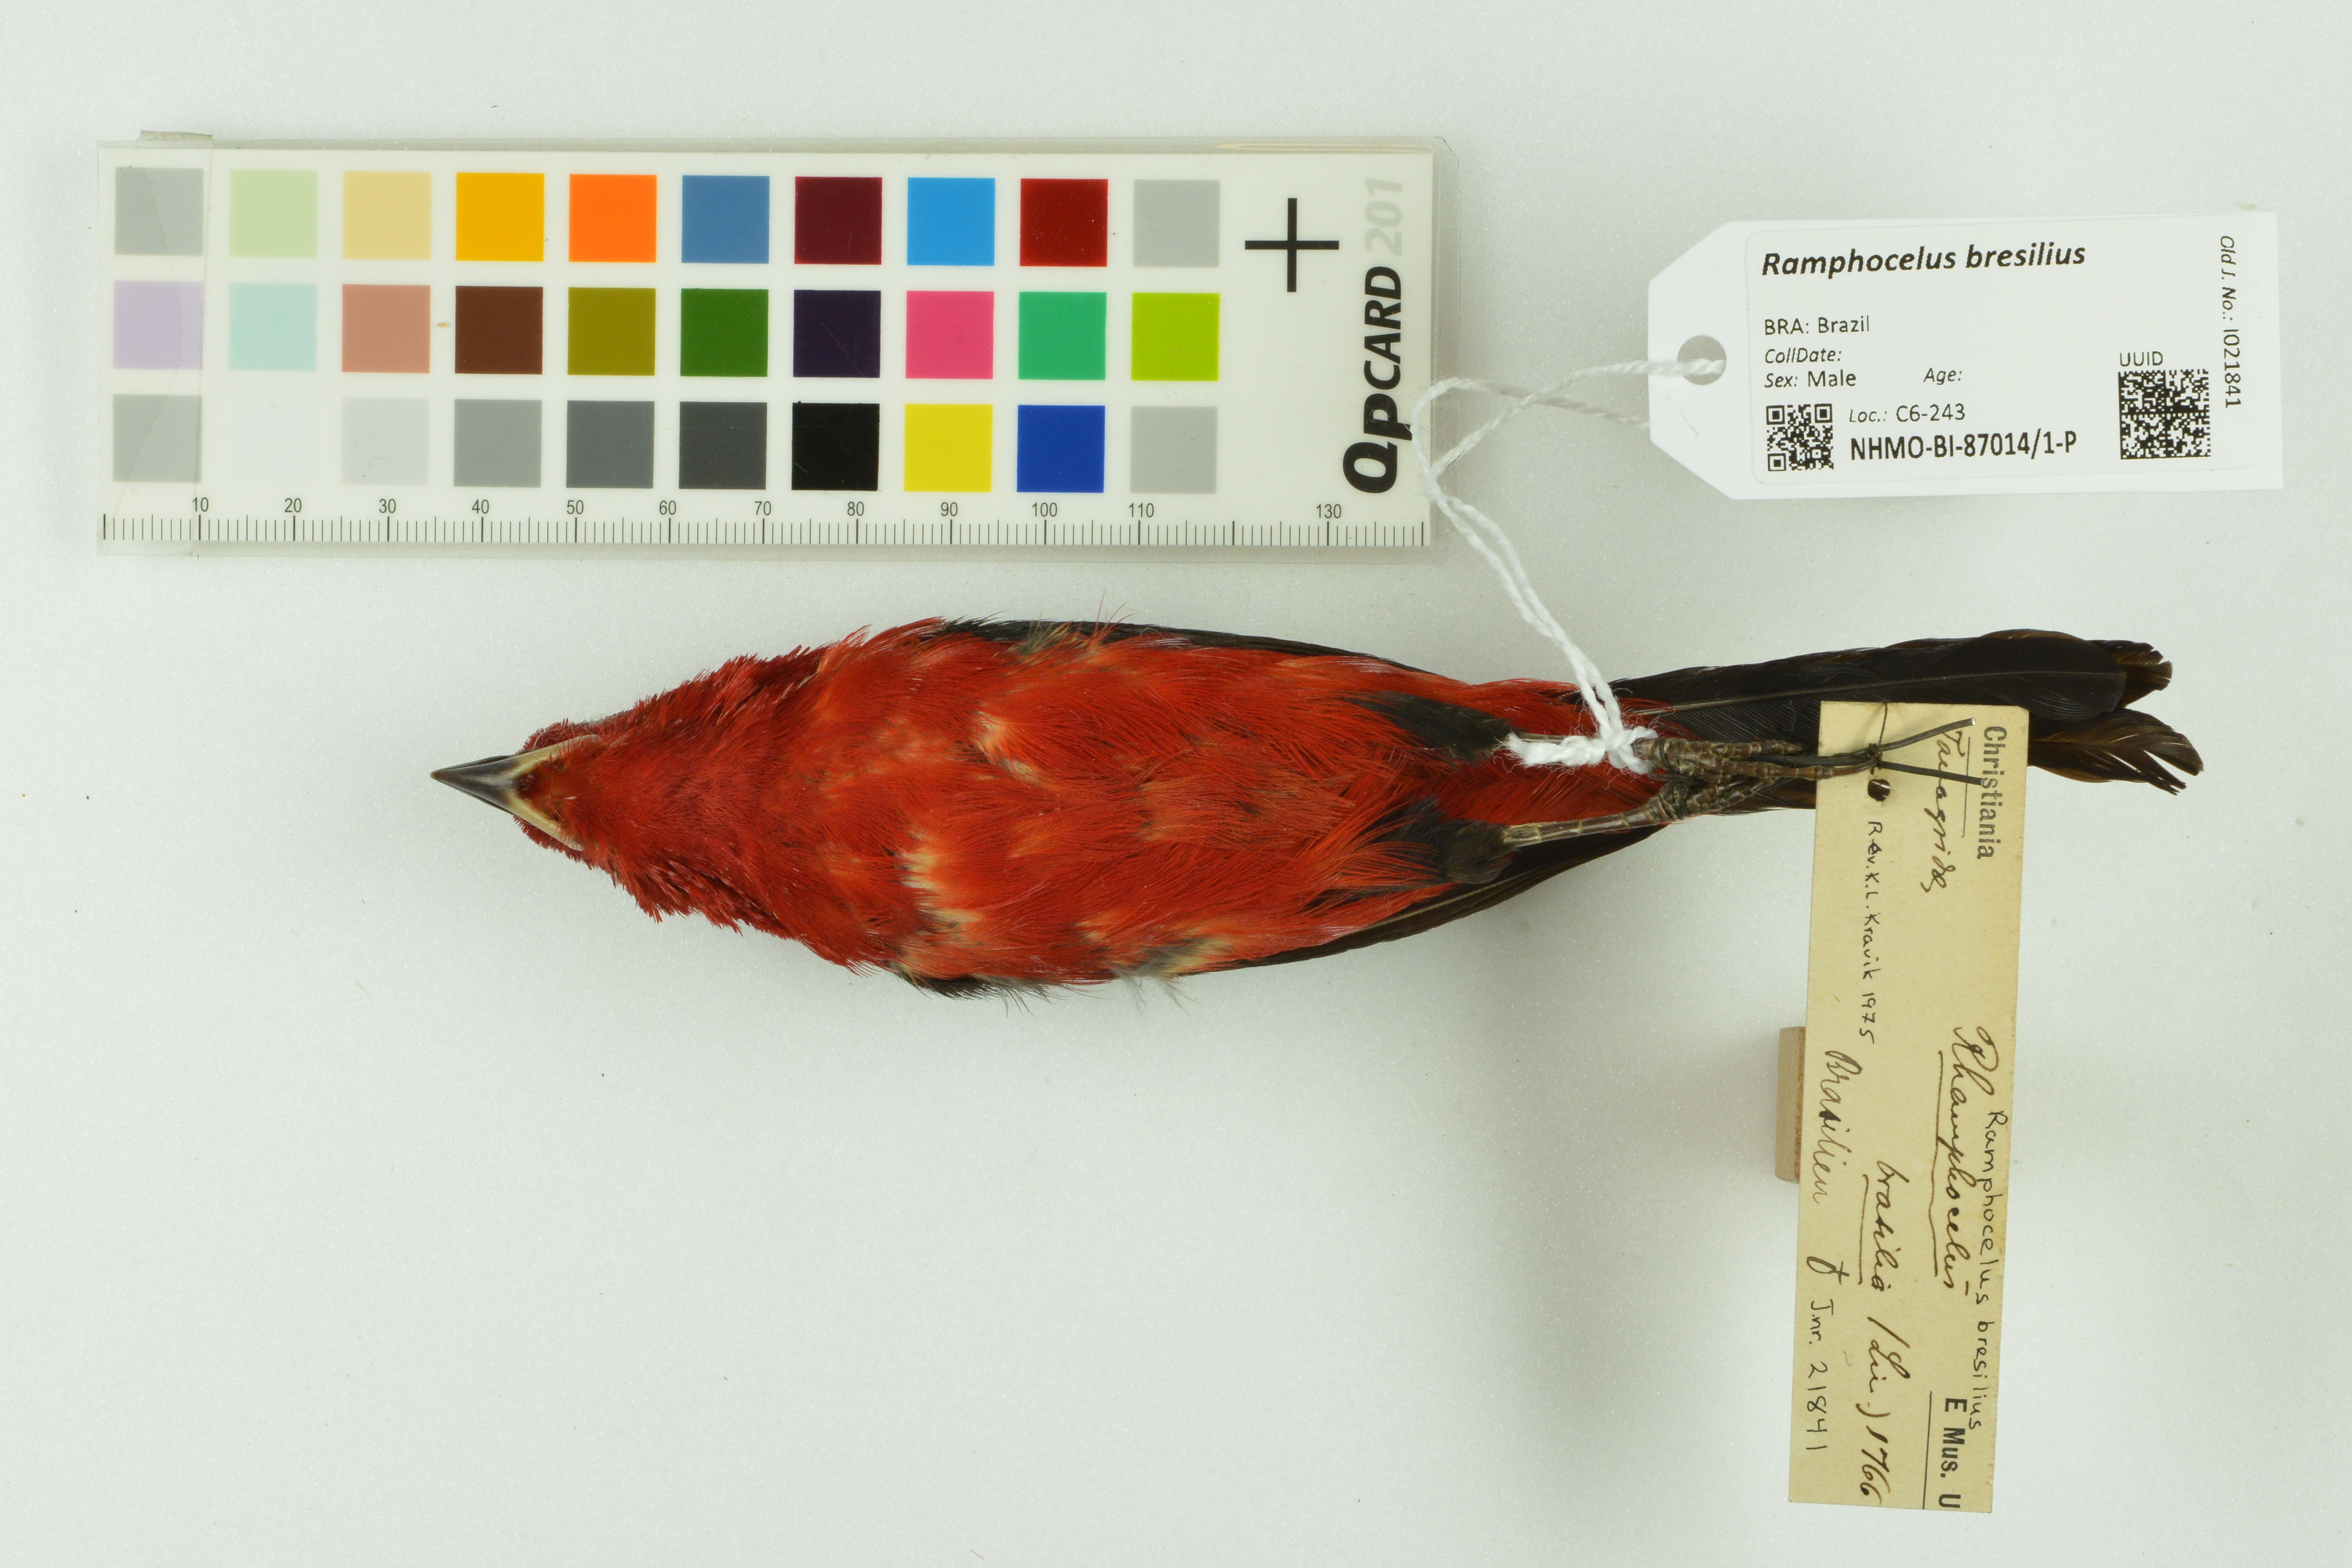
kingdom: Animalia
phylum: Chordata
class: Aves
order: Passeriformes
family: Thraupidae
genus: Ramphocelus
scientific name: Ramphocelus bresilia
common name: Brazilian tanager
